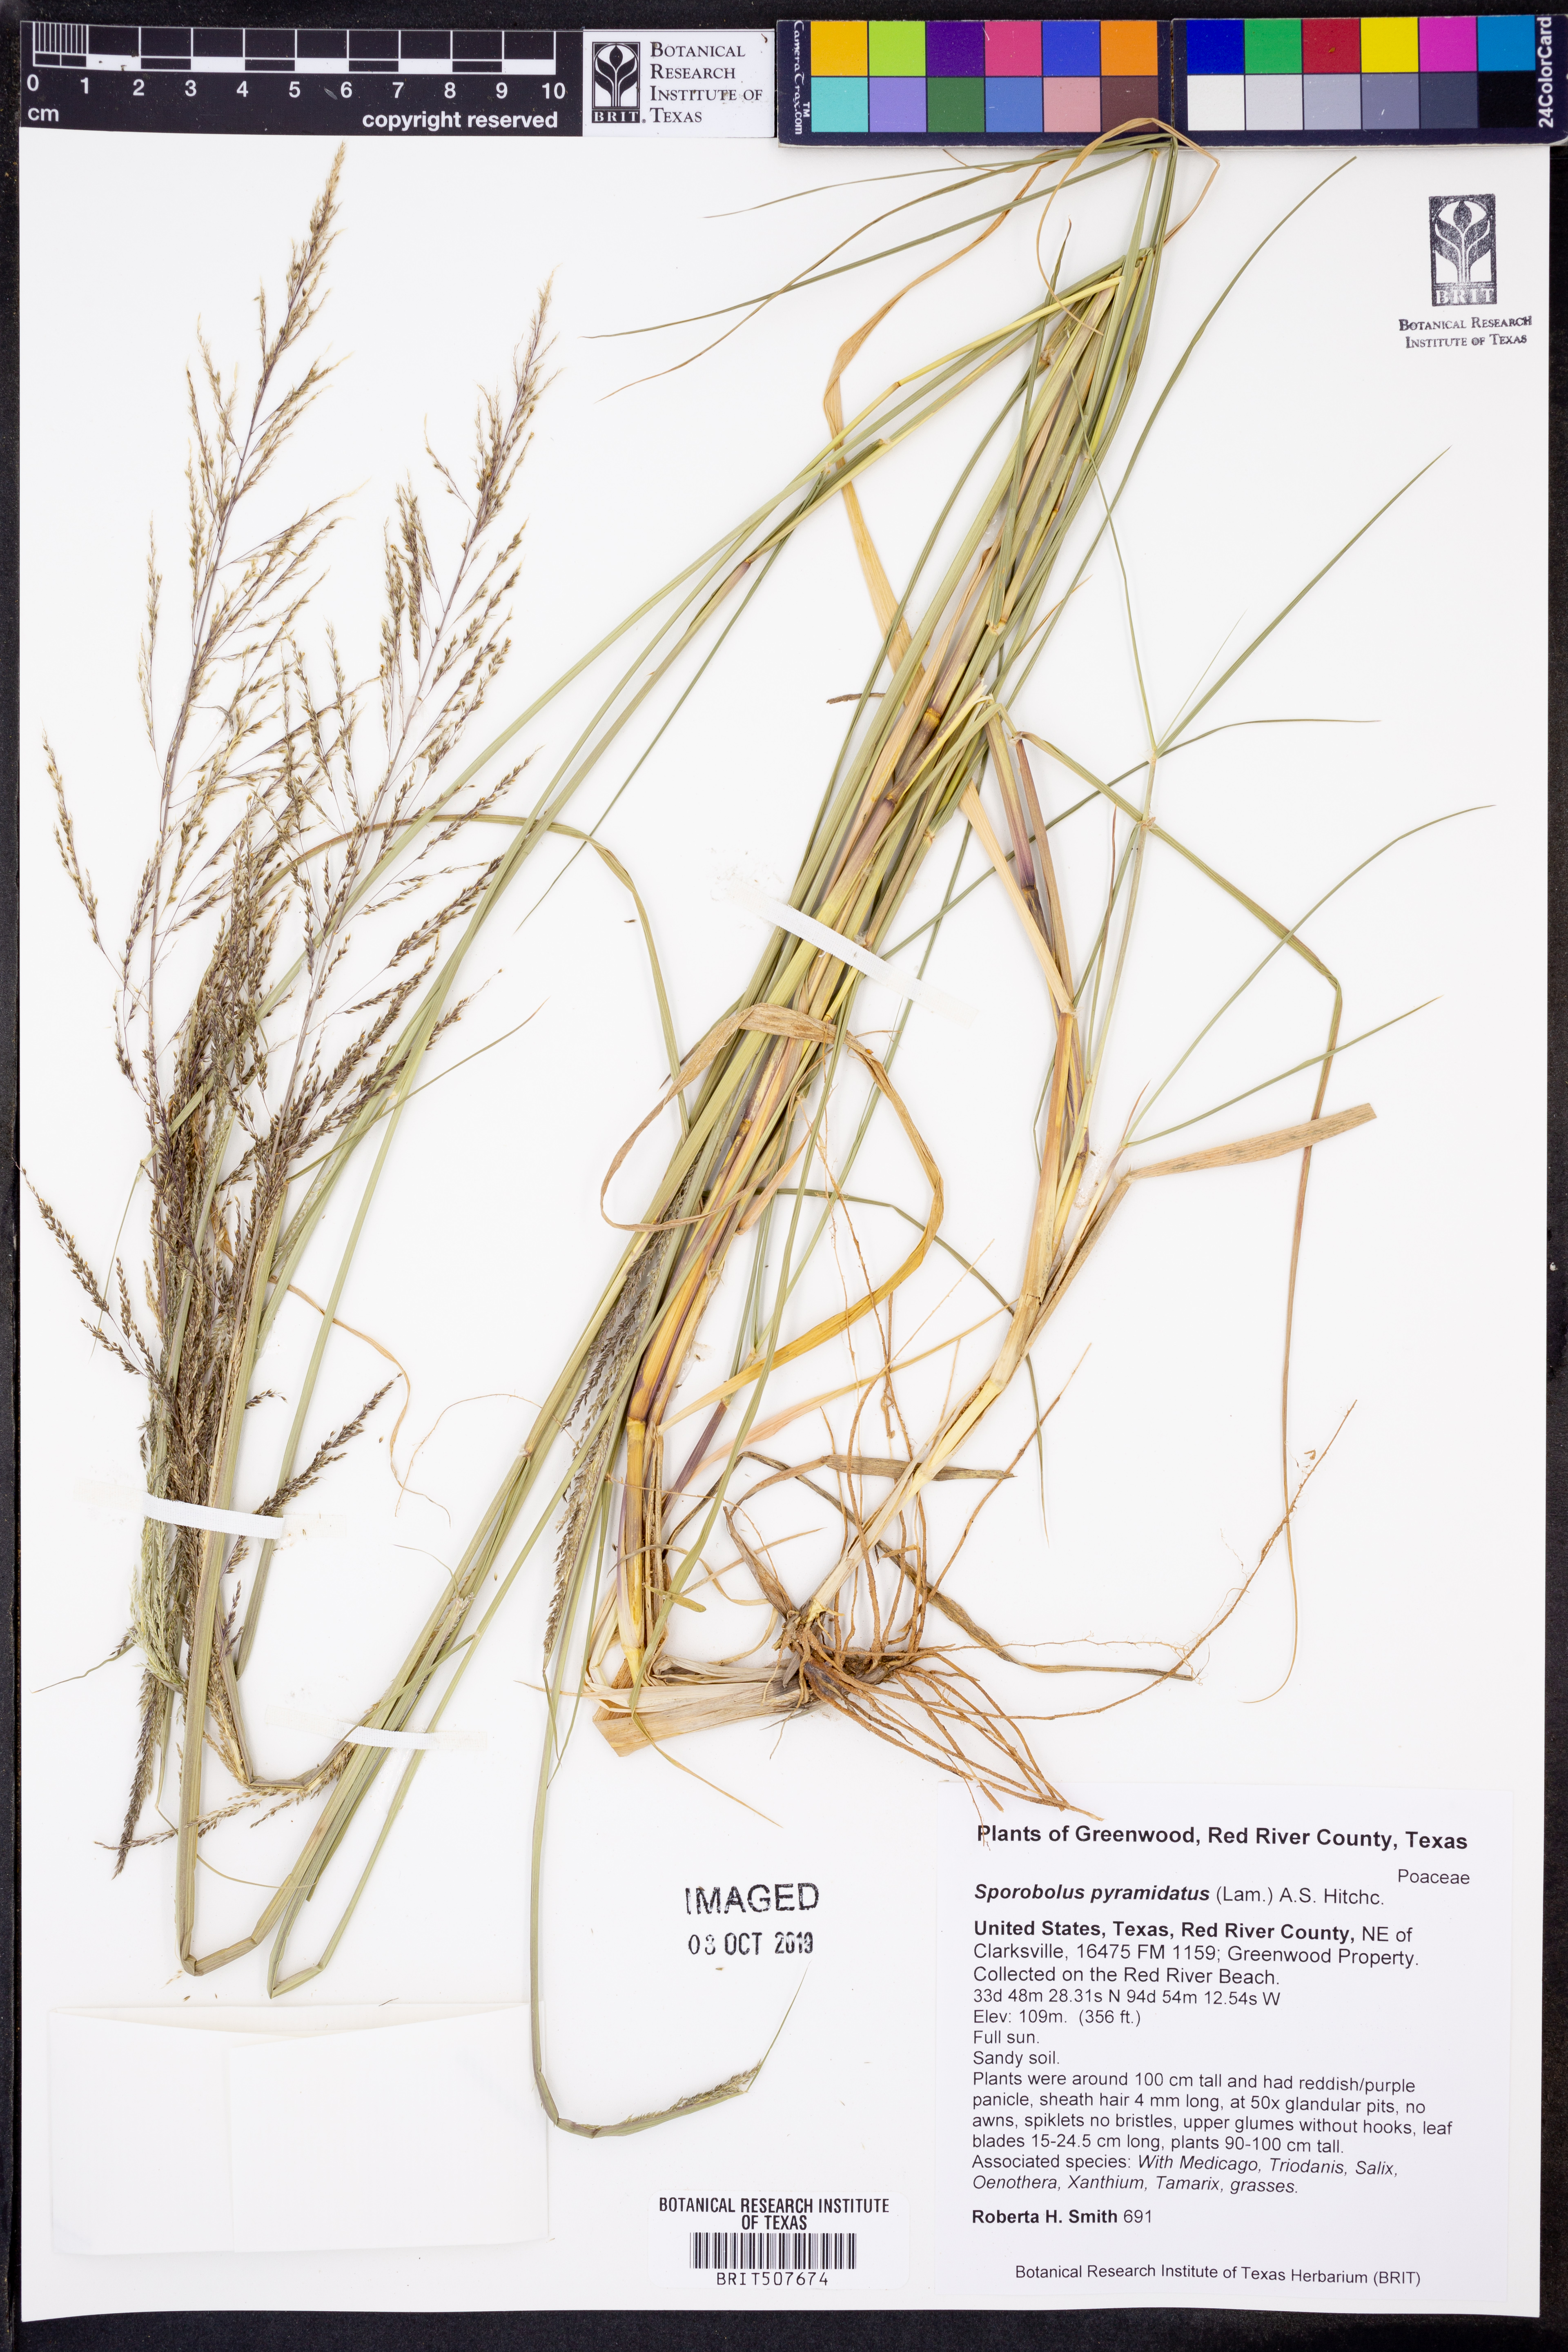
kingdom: Plantae
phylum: Tracheophyta
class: Liliopsida
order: Poales
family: Poaceae
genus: Sporobolus
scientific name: Sporobolus pyramidatus
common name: Whorled dropseed
